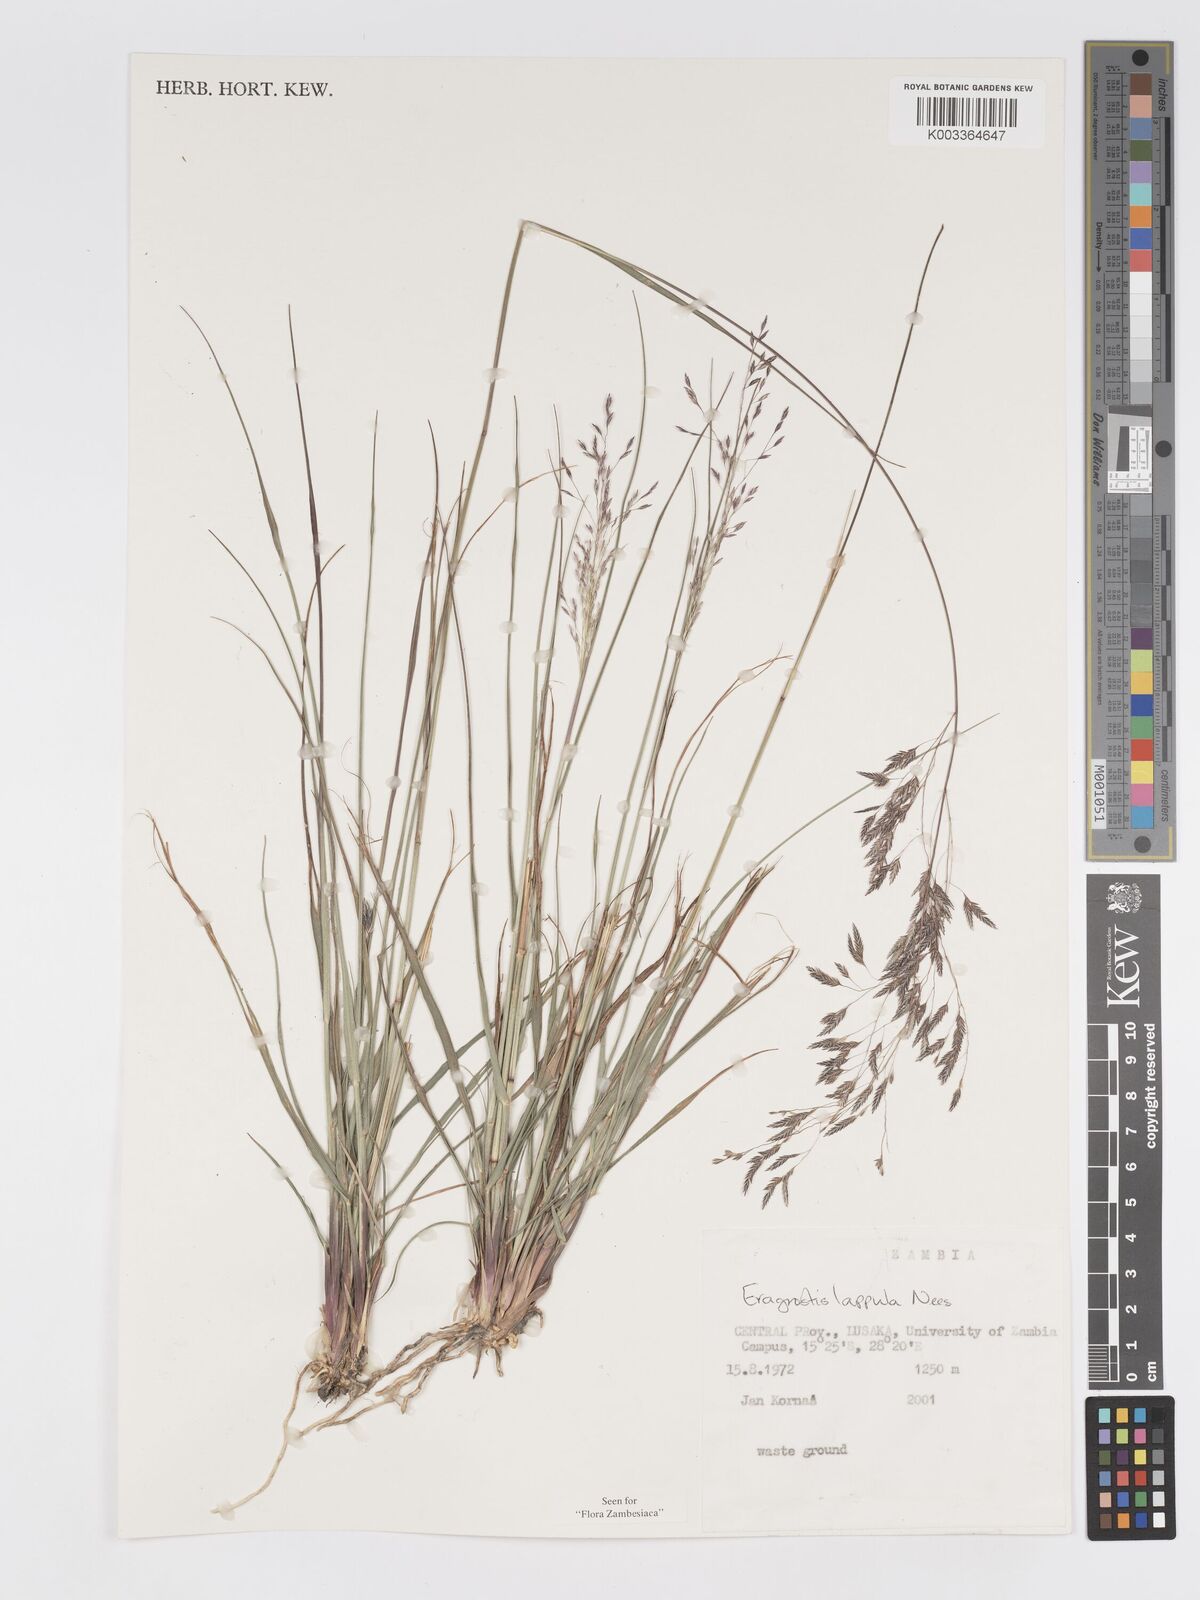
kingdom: Plantae
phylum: Tracheophyta
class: Liliopsida
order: Poales
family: Poaceae
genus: Eragrostis
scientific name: Eragrostis lappula
